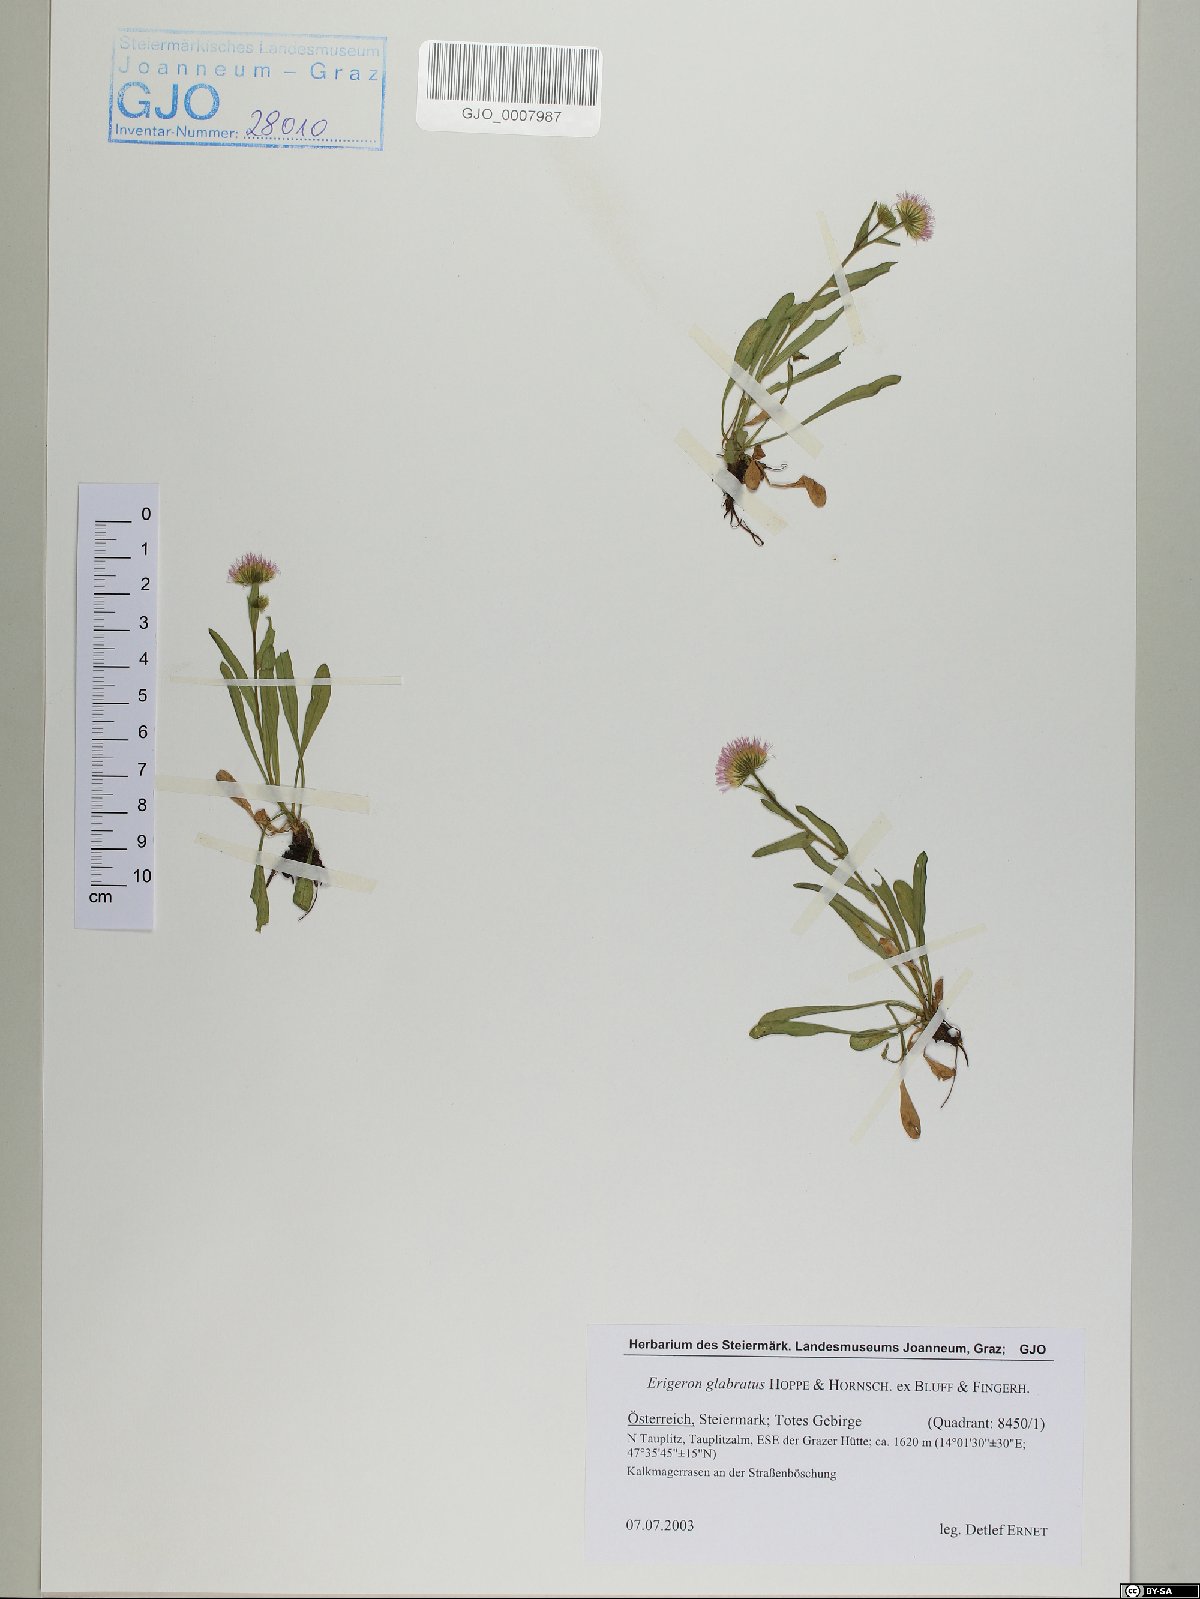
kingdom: Plantae
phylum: Tracheophyta
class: Magnoliopsida
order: Asterales
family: Asteraceae
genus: Erigeron
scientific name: Erigeron glabratus
